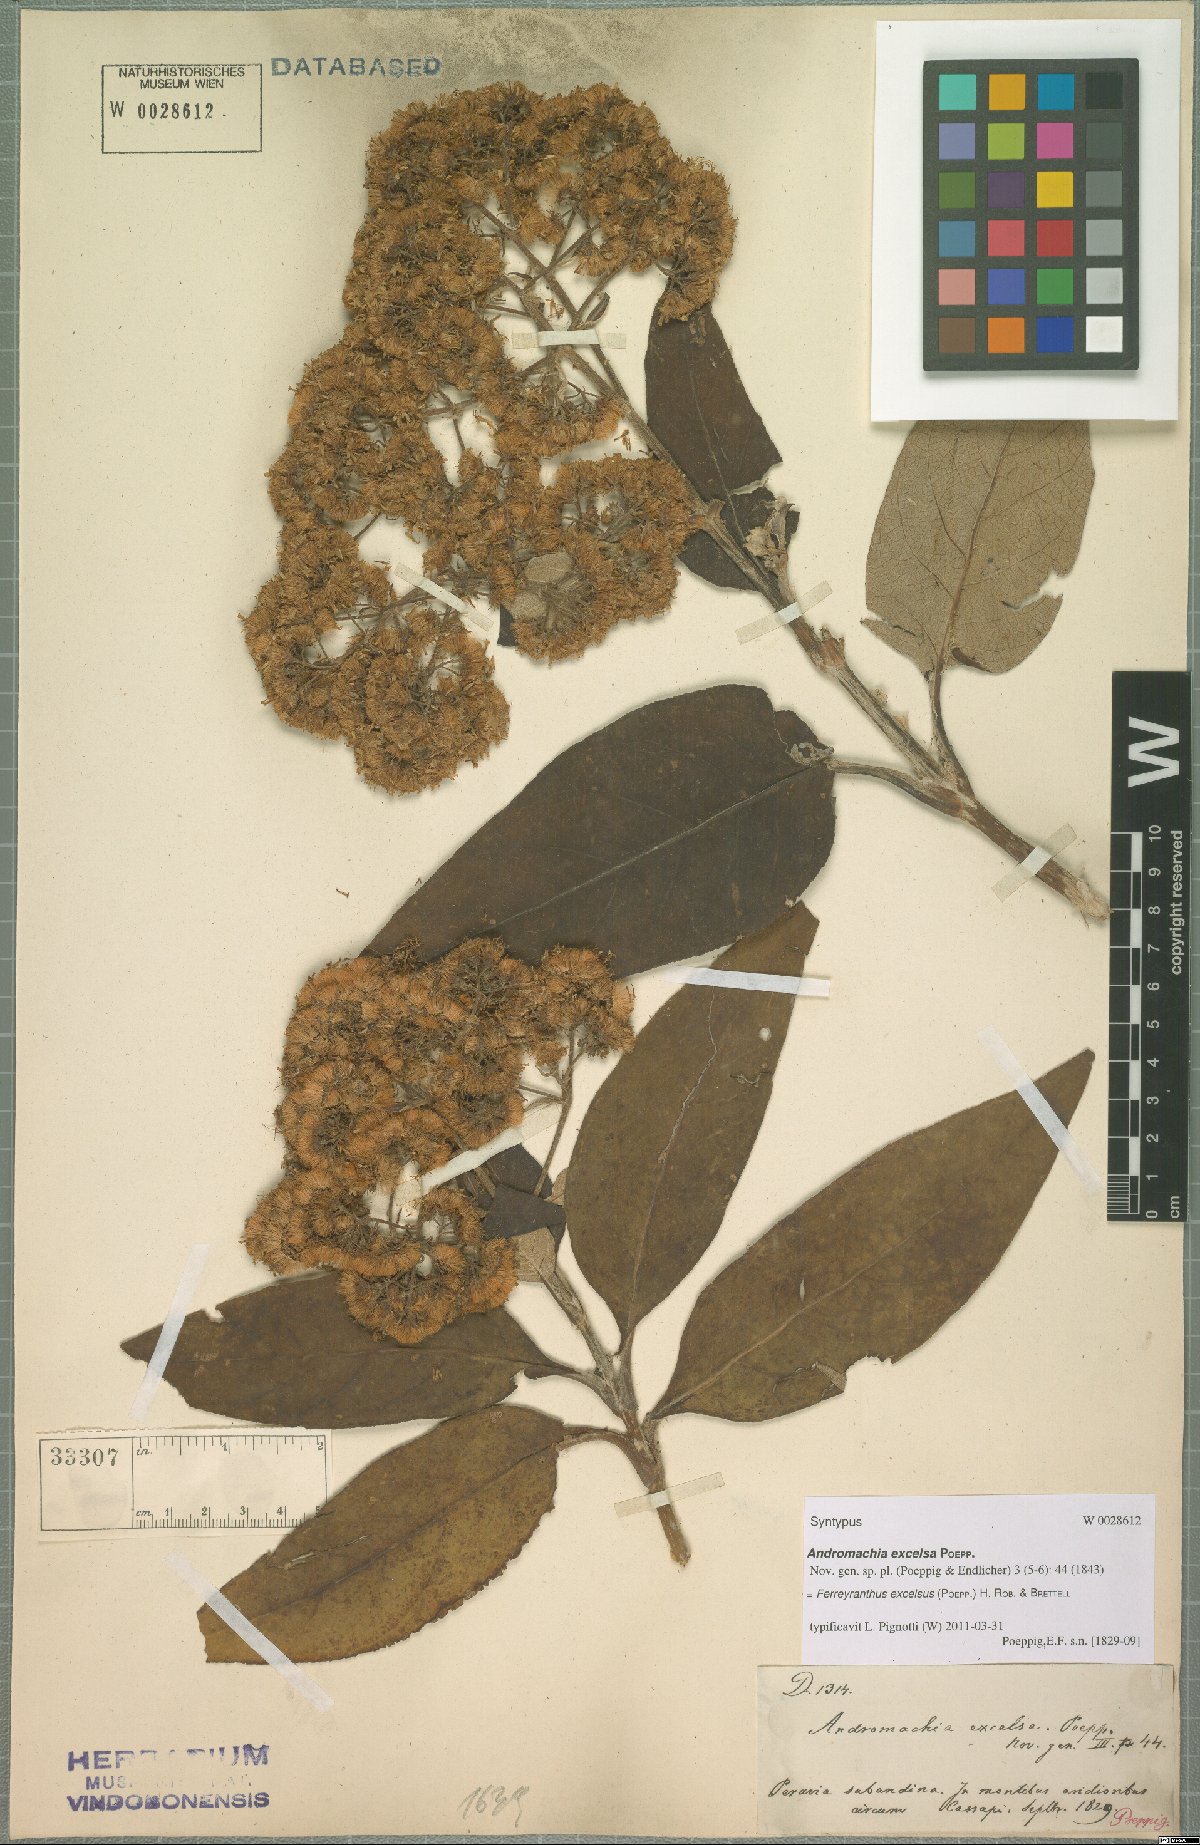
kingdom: Plantae
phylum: Tracheophyta
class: Magnoliopsida
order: Asterales
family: Asteraceae
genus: Ferreyranthus
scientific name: Ferreyranthus excelsus
